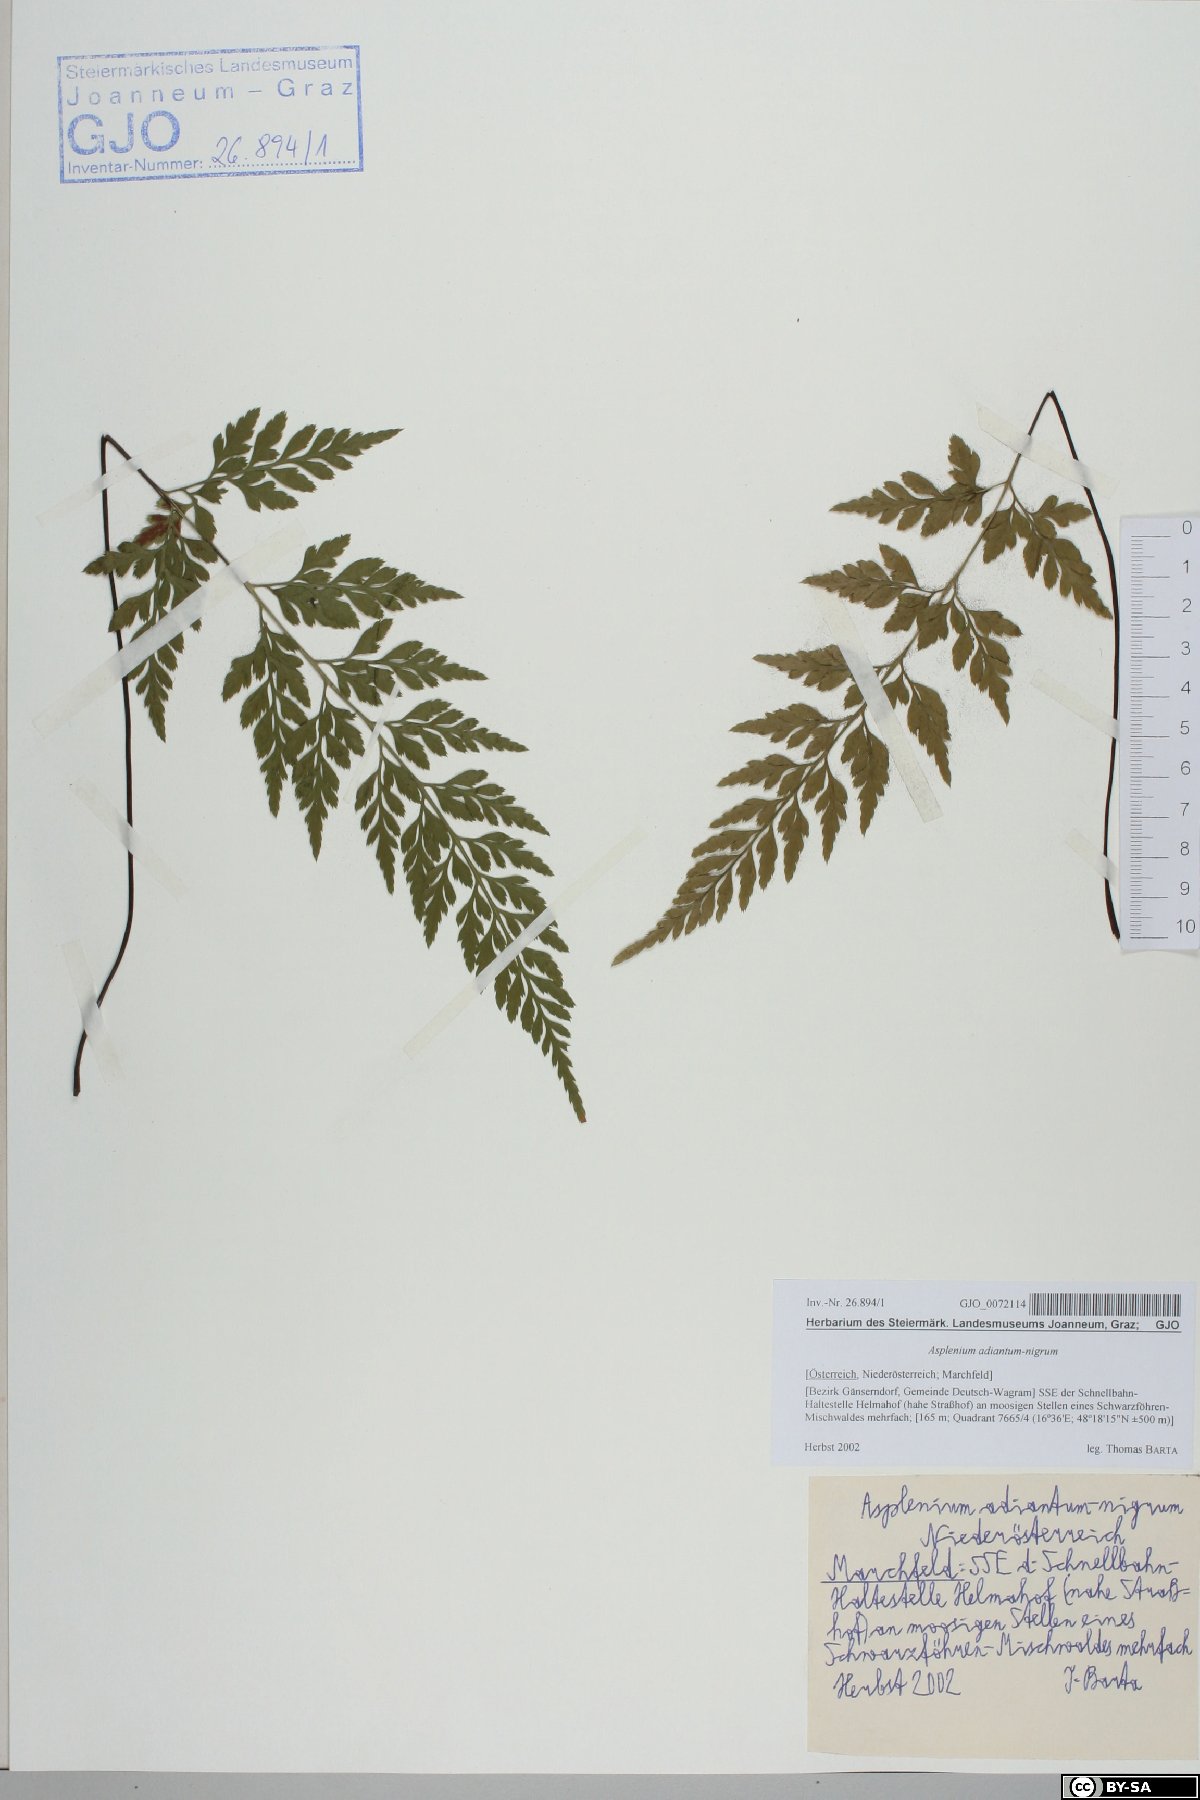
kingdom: Plantae
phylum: Tracheophyta
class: Polypodiopsida
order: Polypodiales
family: Aspleniaceae
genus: Asplenium
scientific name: Asplenium adiantum-nigrum
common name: Black spleenwort
